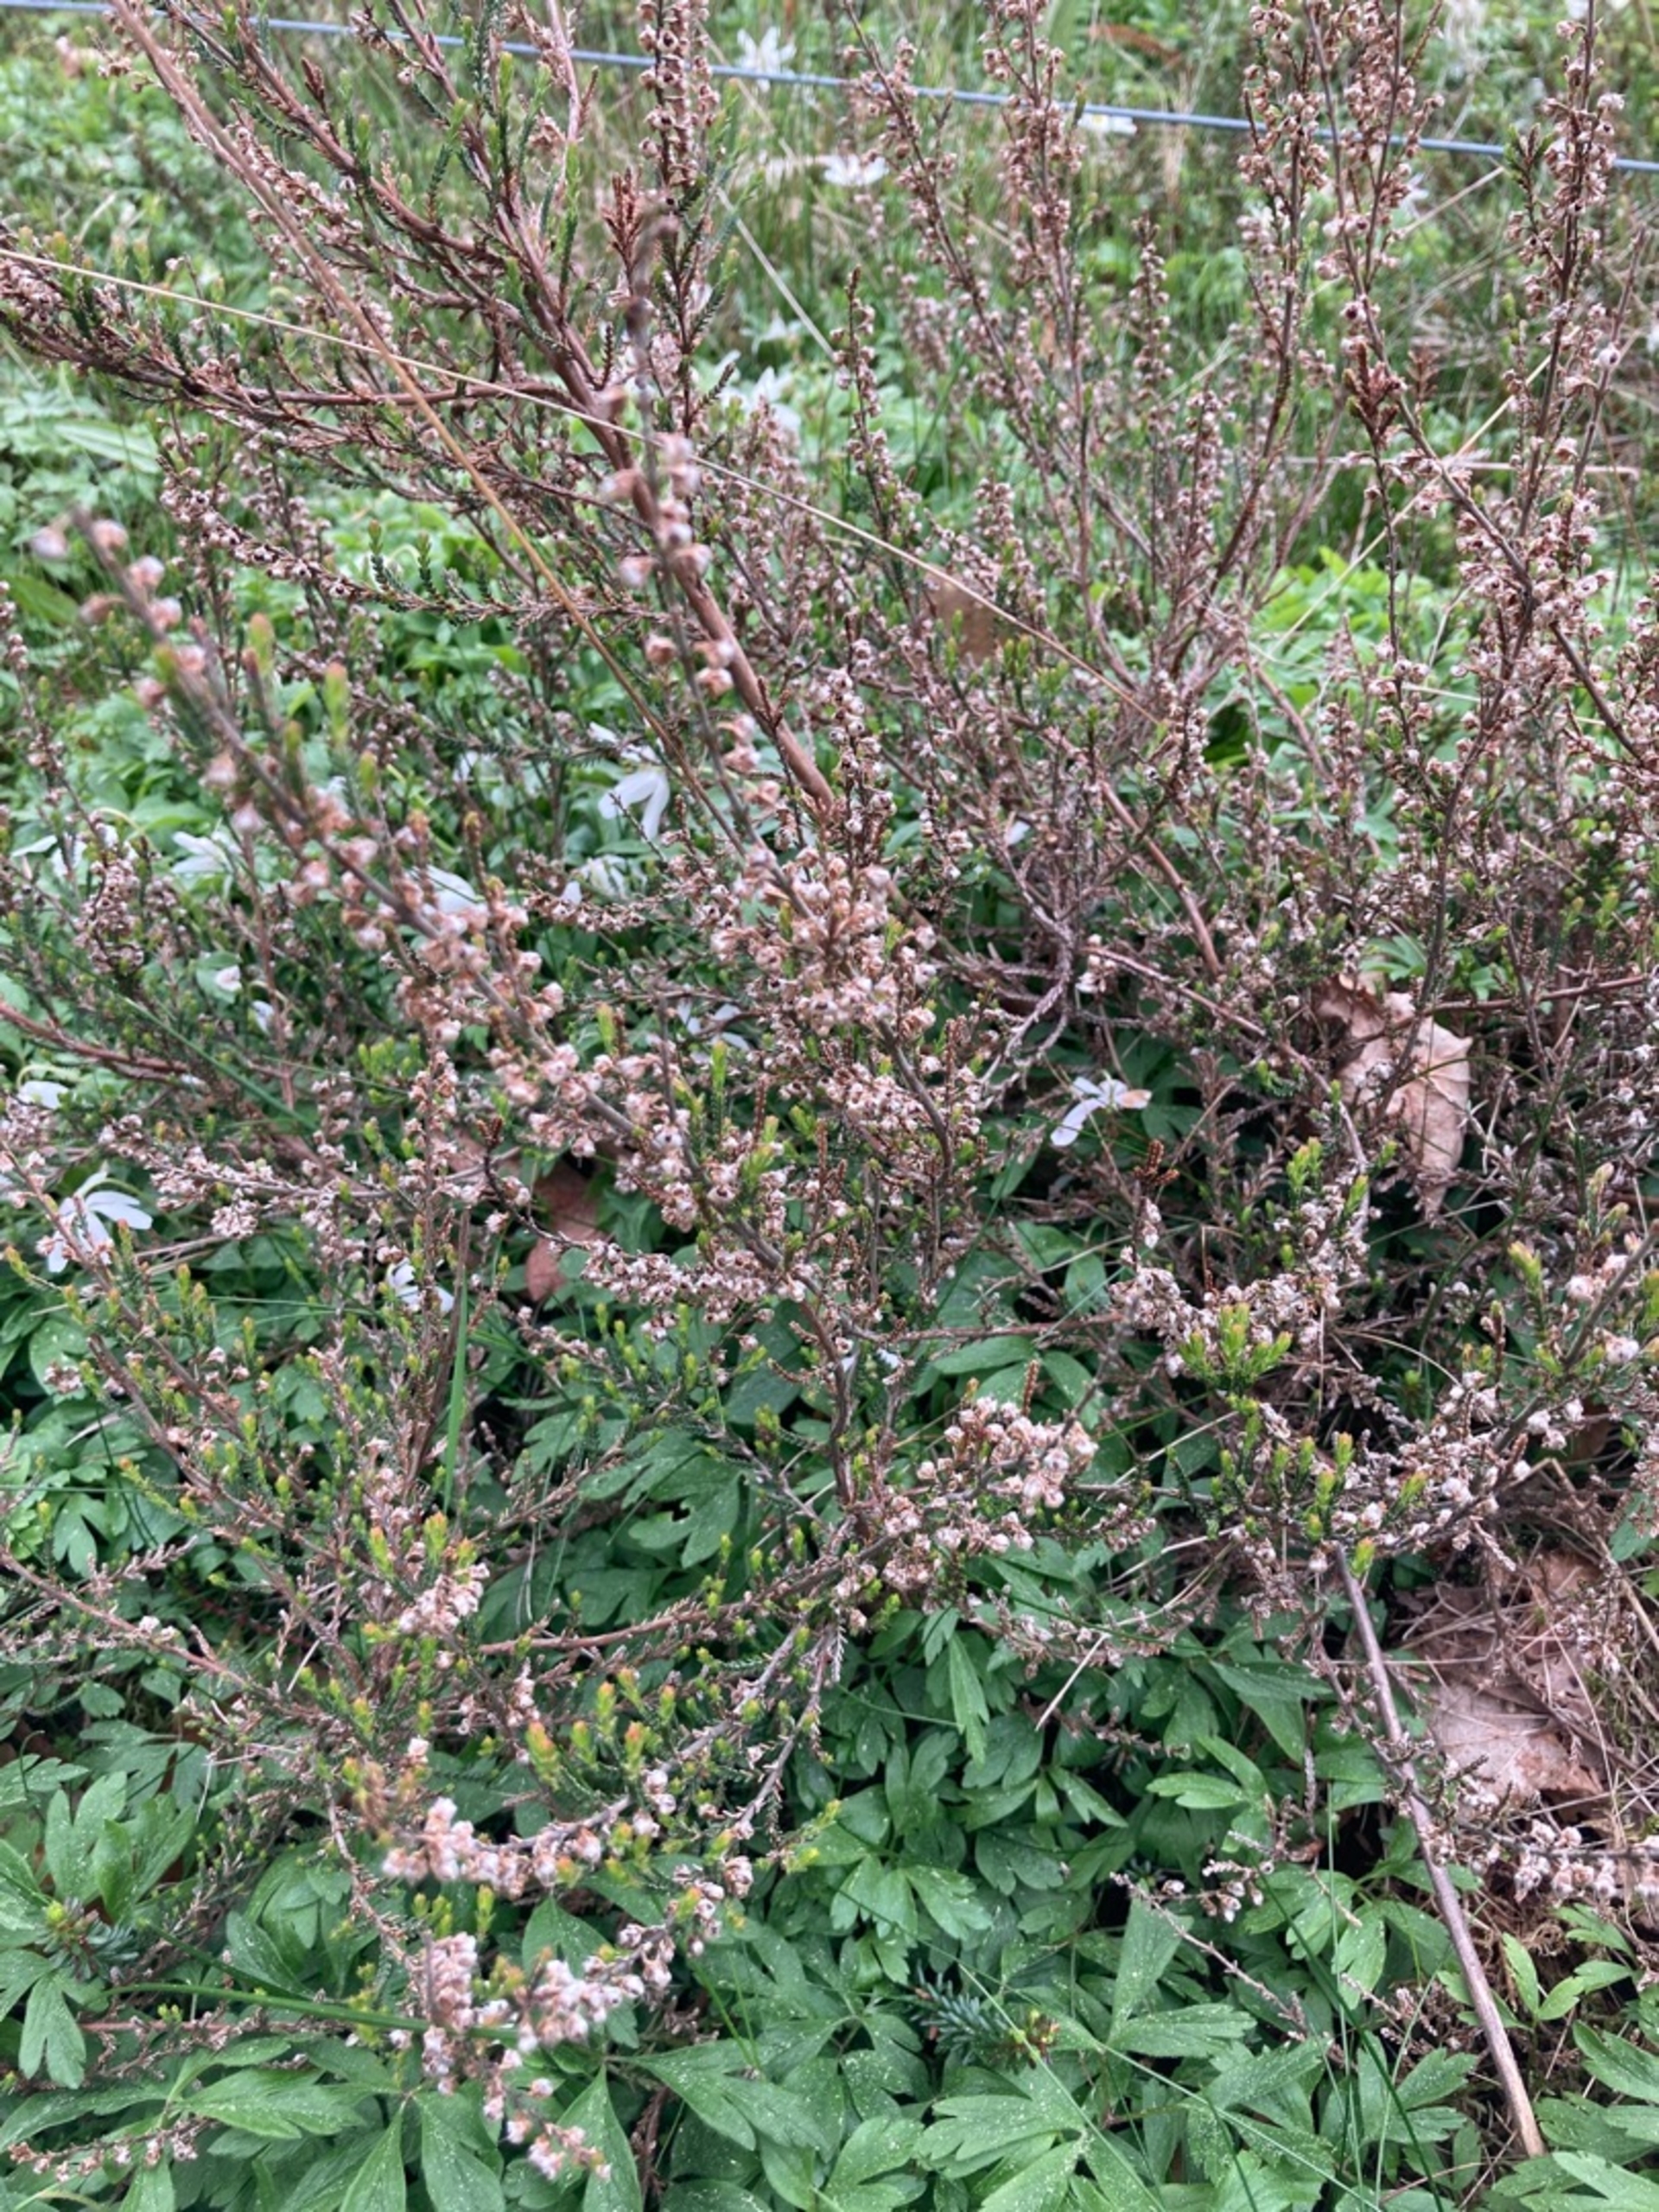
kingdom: Plantae
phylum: Tracheophyta
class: Magnoliopsida
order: Ericales
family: Ericaceae
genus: Calluna
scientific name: Calluna vulgaris
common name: Hedelyng
